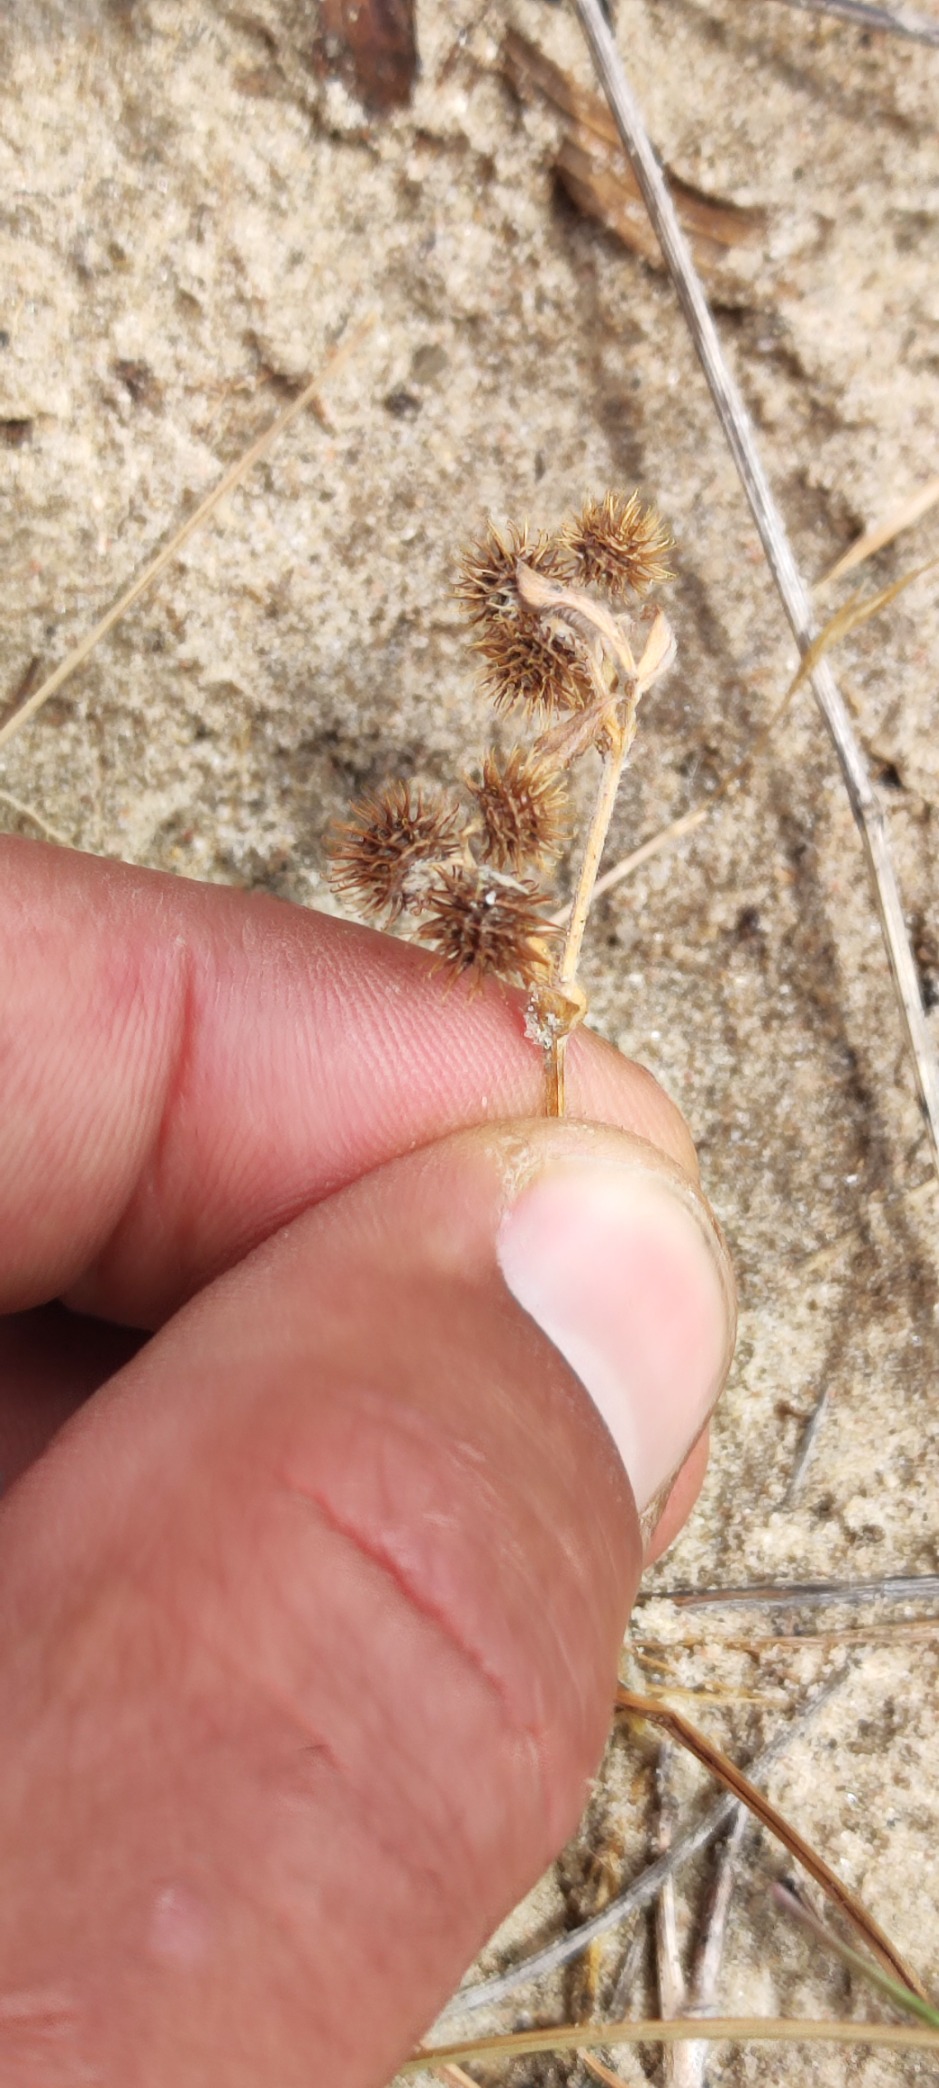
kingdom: Plantae
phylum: Tracheophyta
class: Magnoliopsida
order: Fabales
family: Fabaceae
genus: Medicago
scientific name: Medicago minima
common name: Liden sneglebælg
